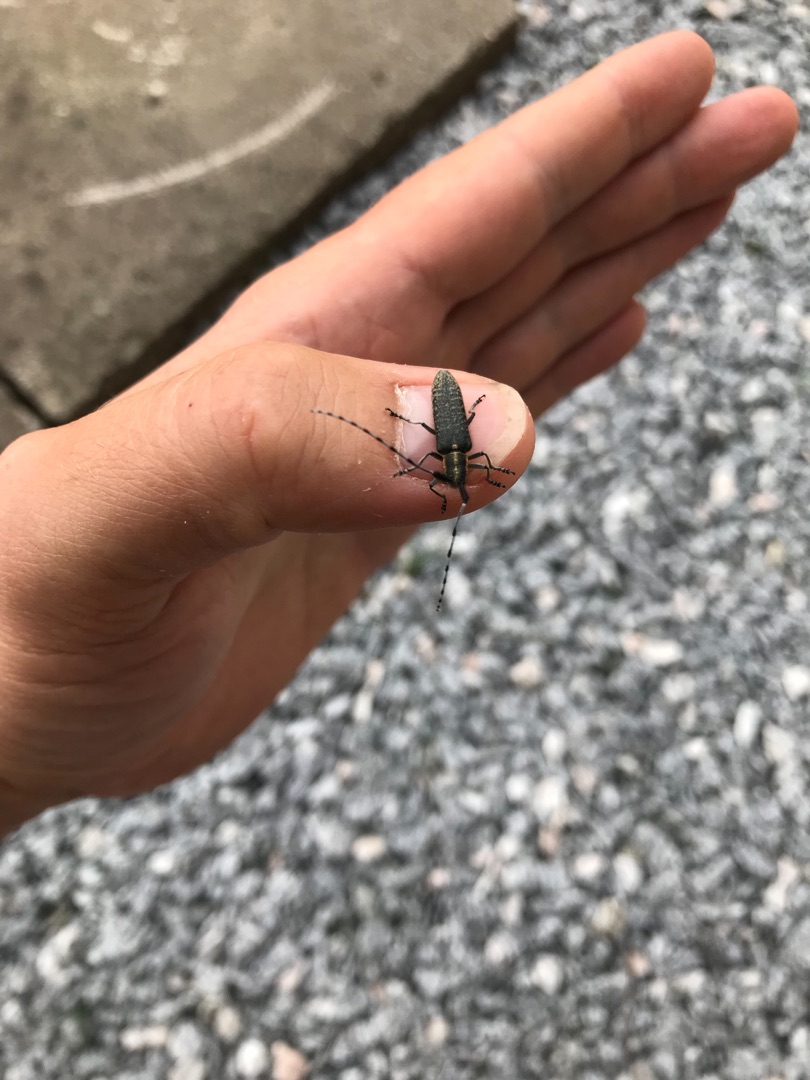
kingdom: Animalia
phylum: Arthropoda
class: Insecta
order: Coleoptera
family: Cerambycidae
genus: Agapanthia
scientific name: Agapanthia villosoviridescens
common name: Tidselbuk
